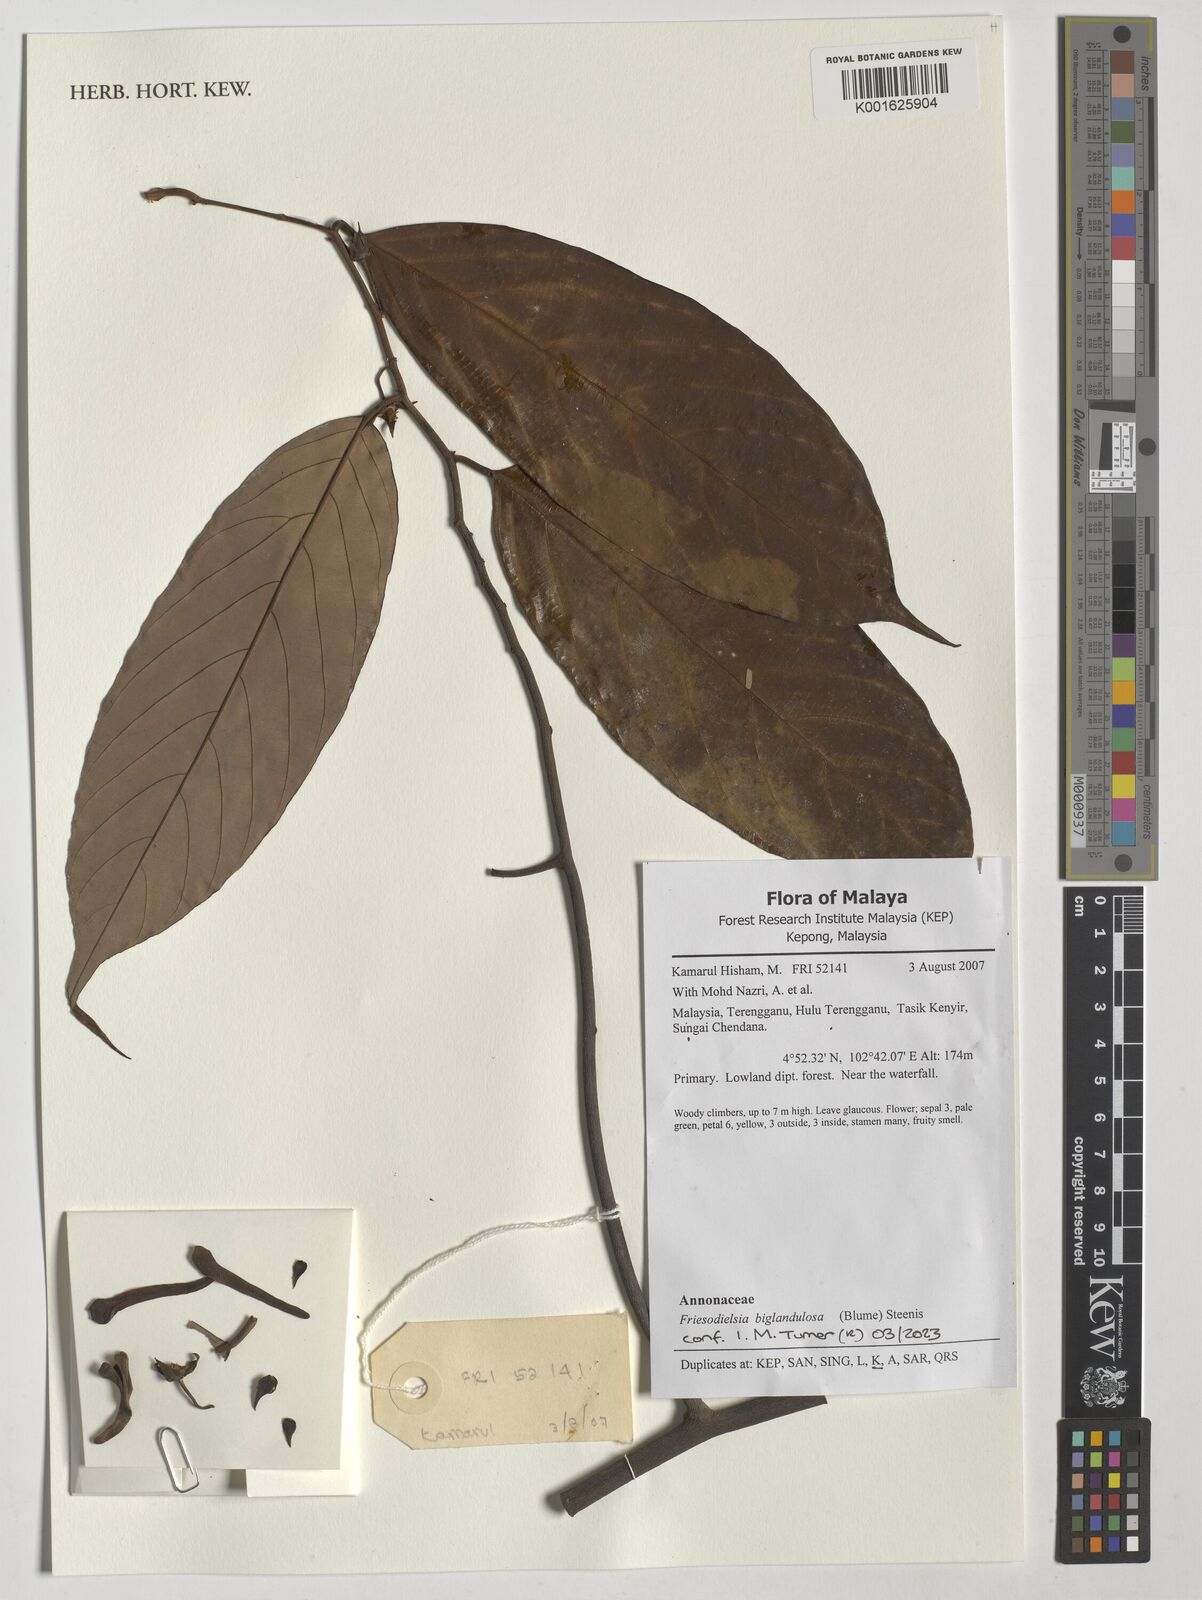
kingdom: Plantae
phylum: Tracheophyta
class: Magnoliopsida
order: Magnoliales
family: Annonaceae
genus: Friesodielsia
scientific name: Friesodielsia biglandulosa
